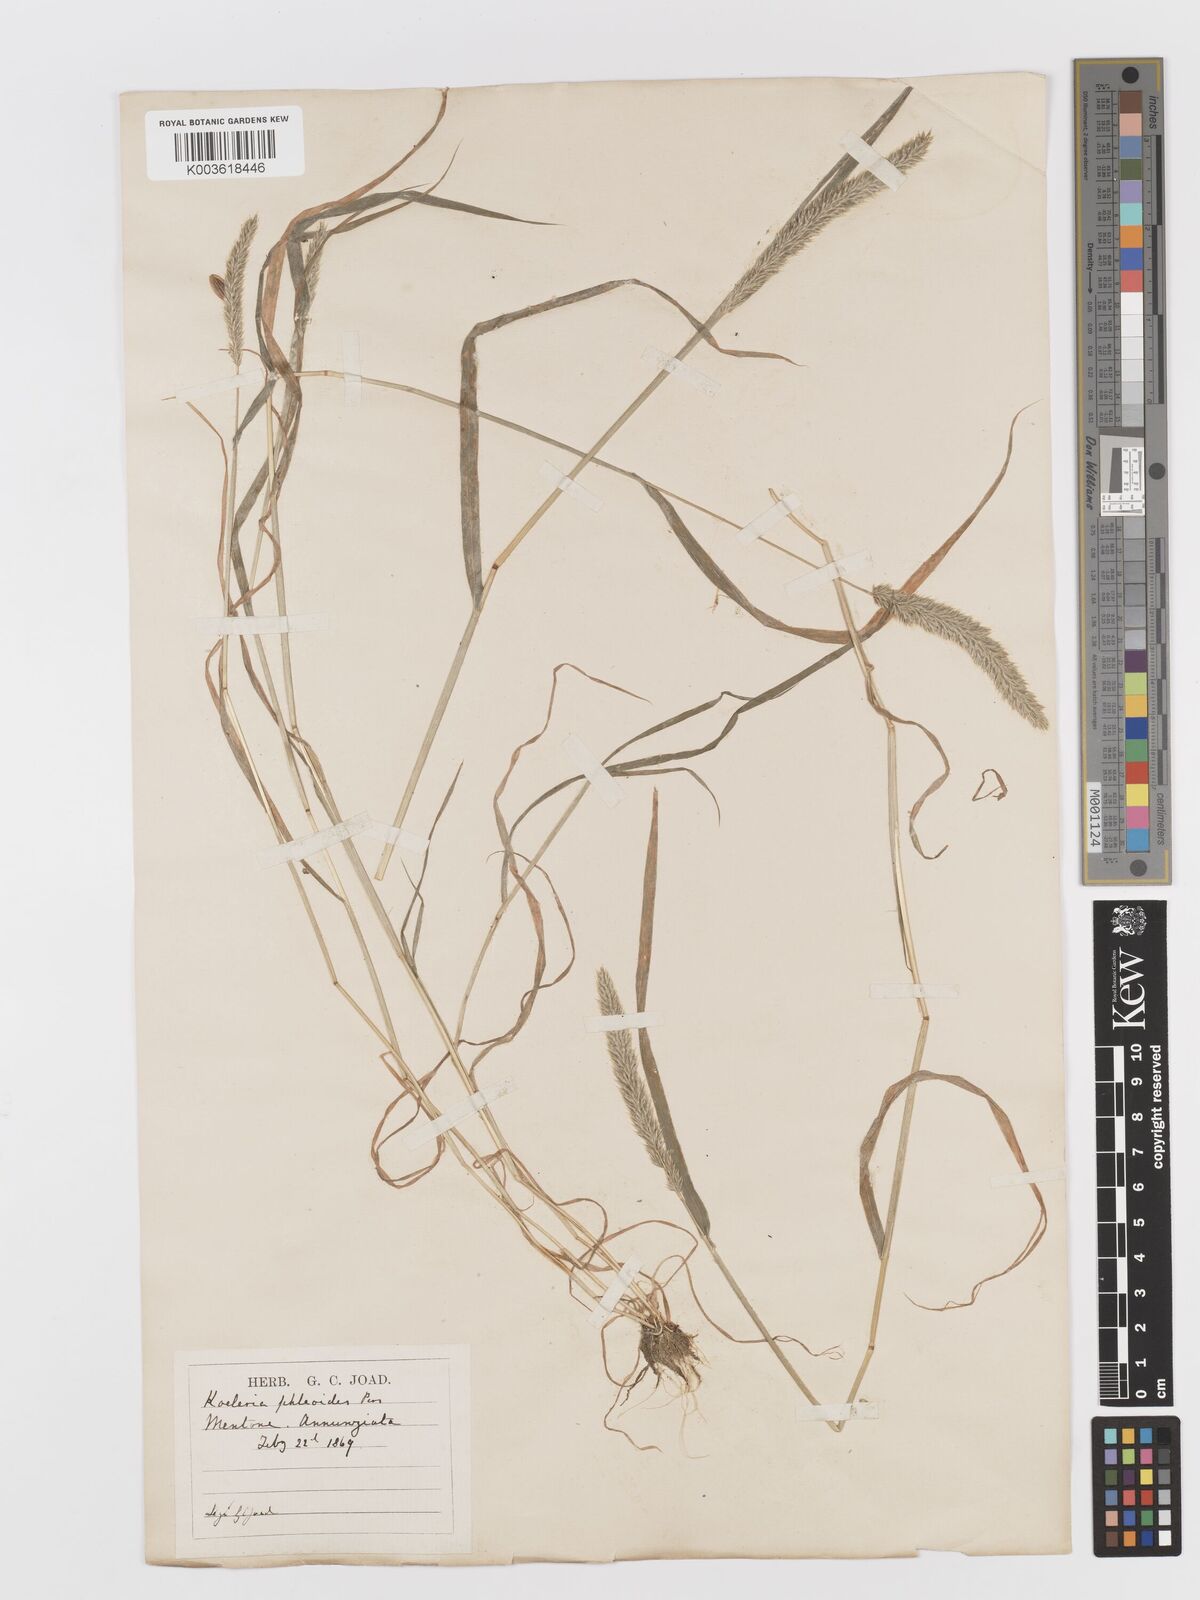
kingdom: Plantae
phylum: Tracheophyta
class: Liliopsida
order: Poales
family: Poaceae
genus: Rostraria
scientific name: Rostraria cristata
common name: Mediterranean hair-grass
